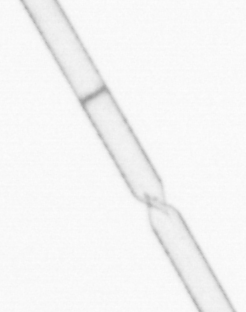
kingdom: Chromista
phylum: Ochrophyta
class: Bacillariophyceae
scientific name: Bacillariophyceae
